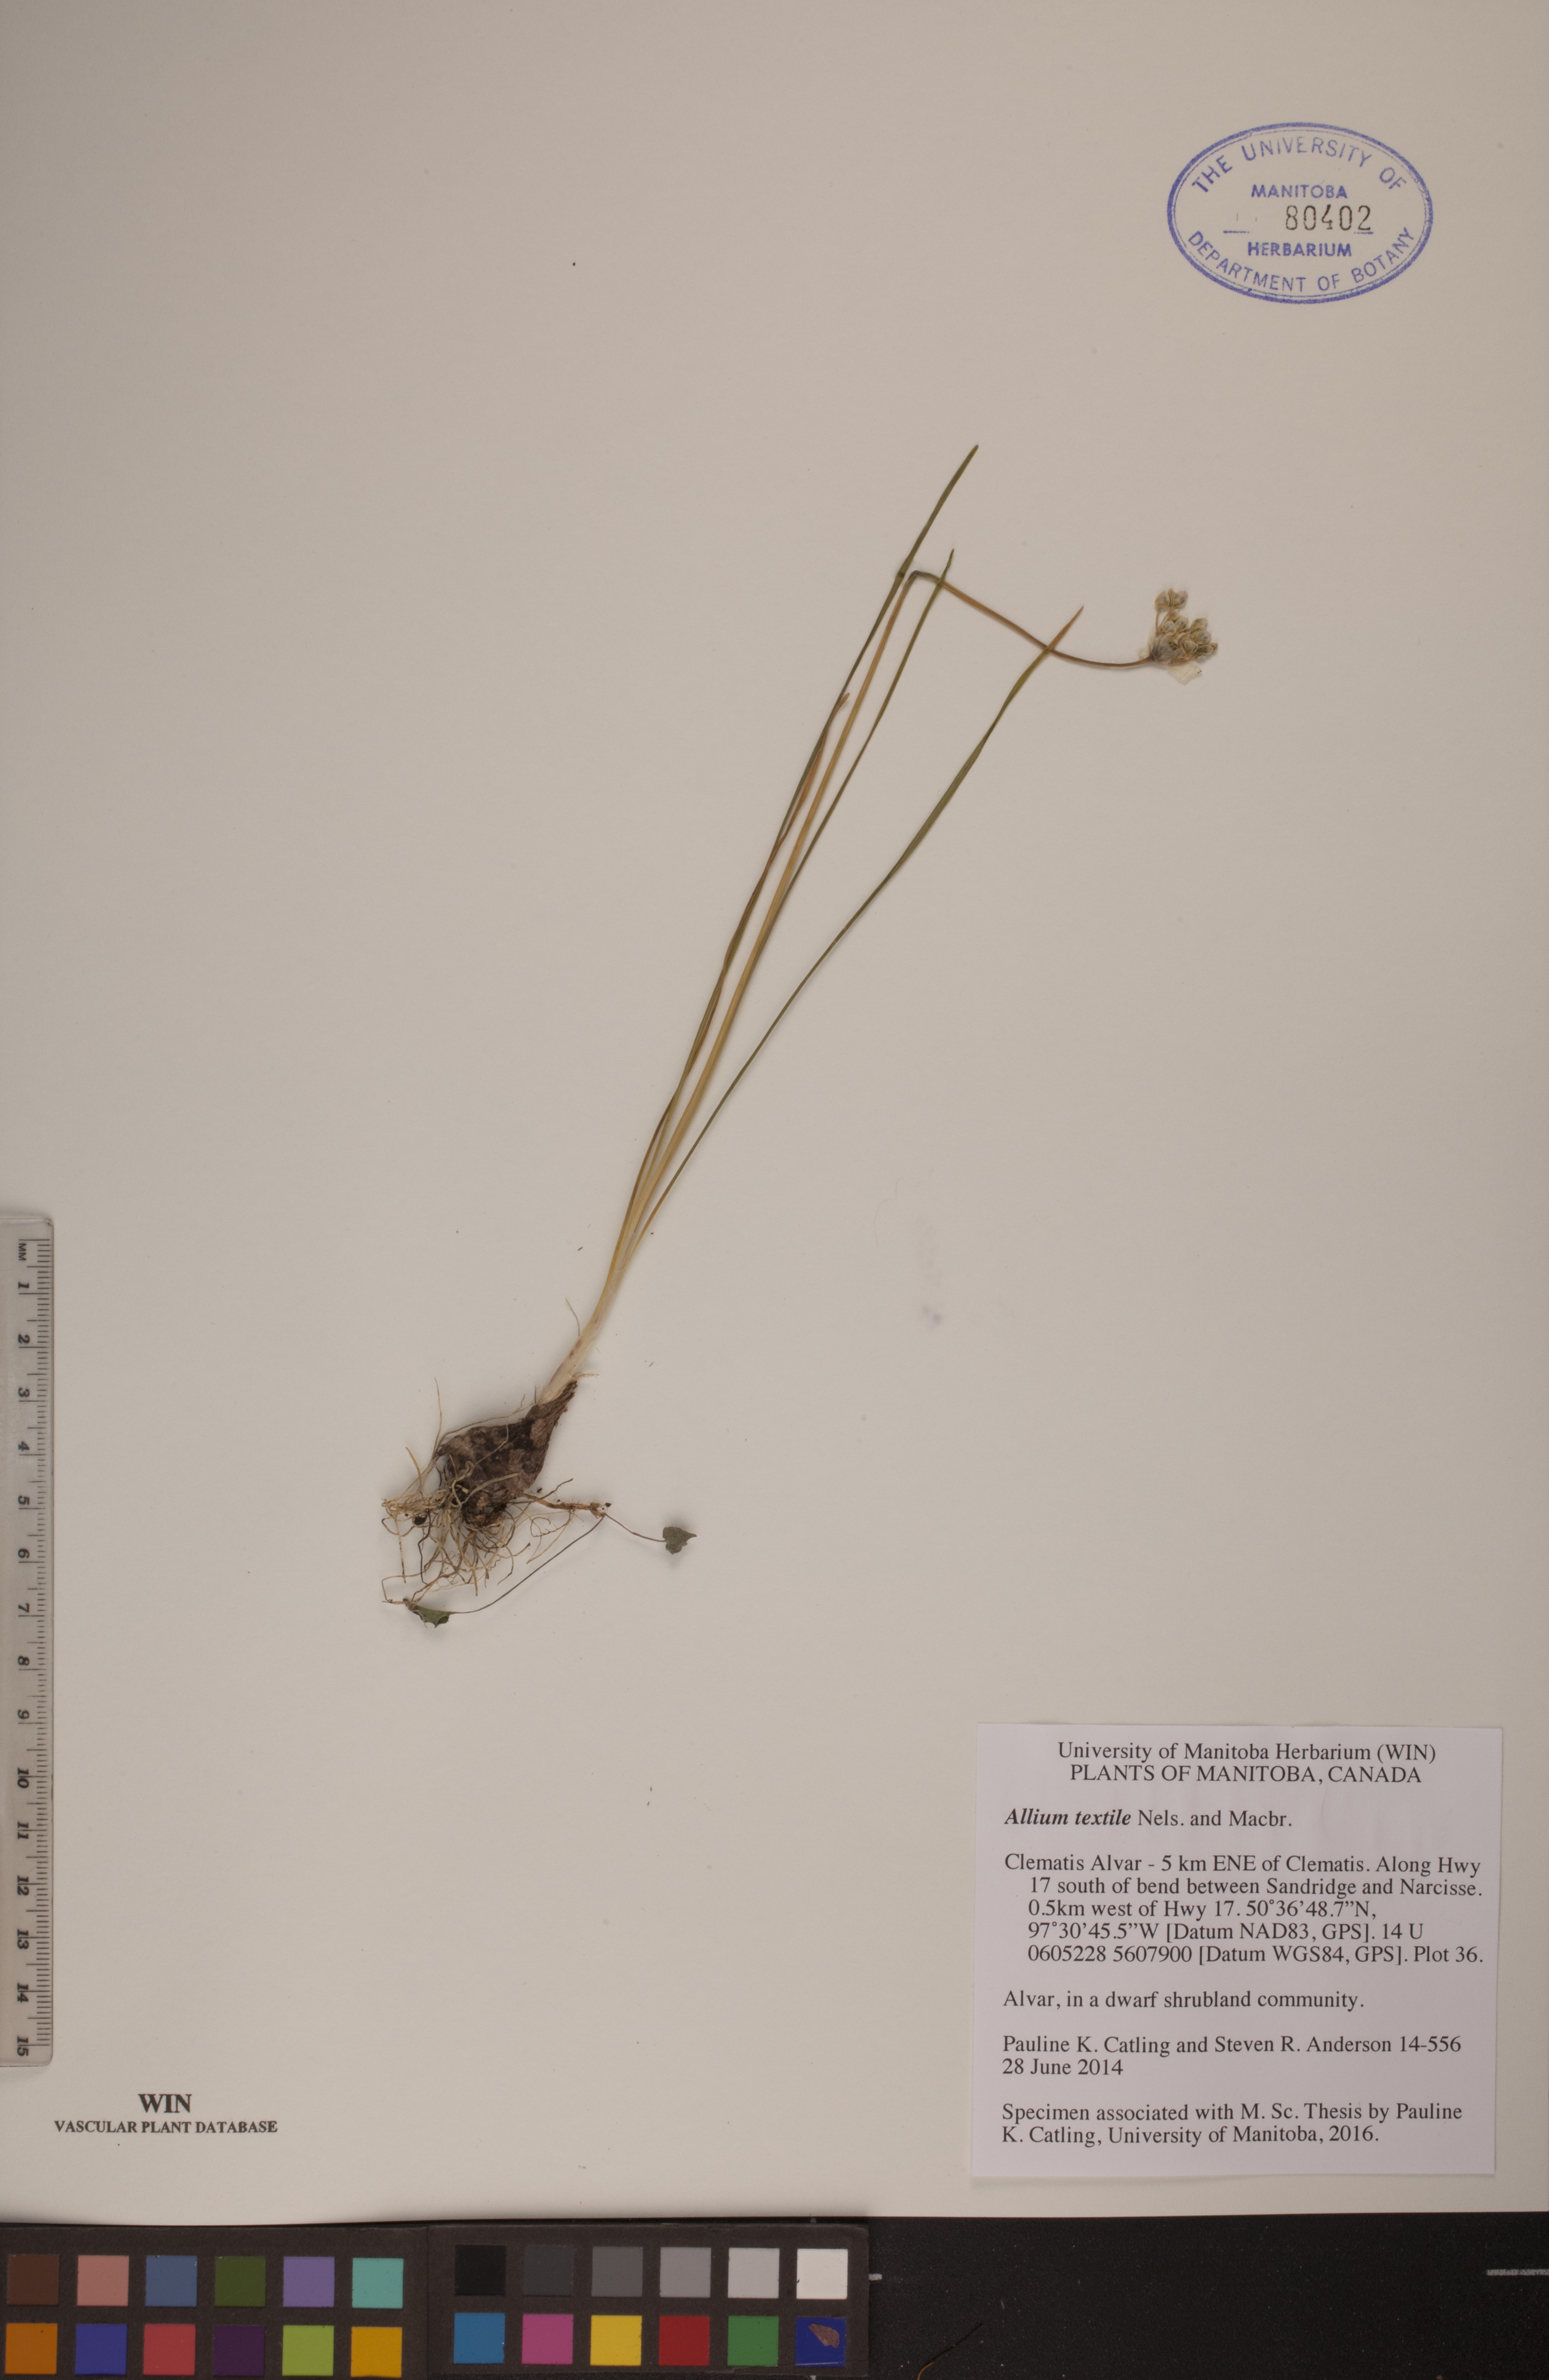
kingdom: Plantae
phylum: Tracheophyta
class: Liliopsida
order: Asparagales
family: Amaryllidaceae
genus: Allium
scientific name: Allium textile
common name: Prairie onion
